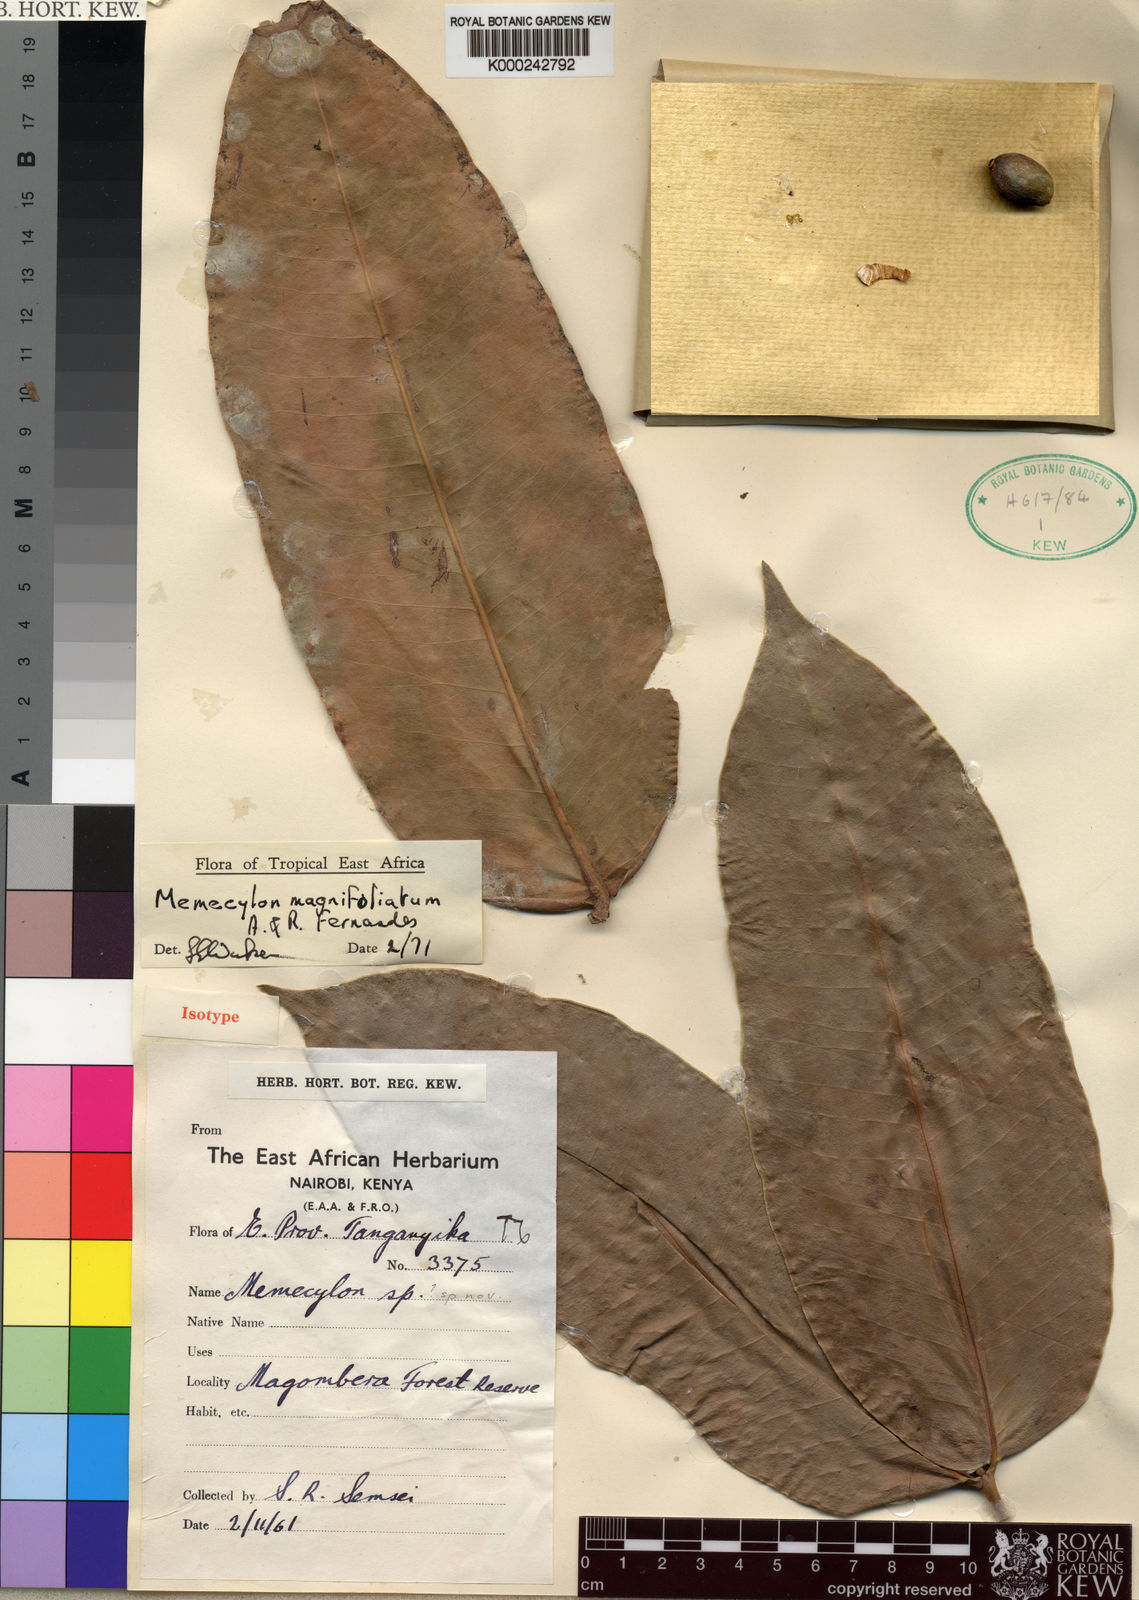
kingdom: Plantae
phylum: Tracheophyta
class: Magnoliopsida
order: Myrtales
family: Melastomataceae
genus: Memecylon
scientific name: Memecylon magnifoliatum
